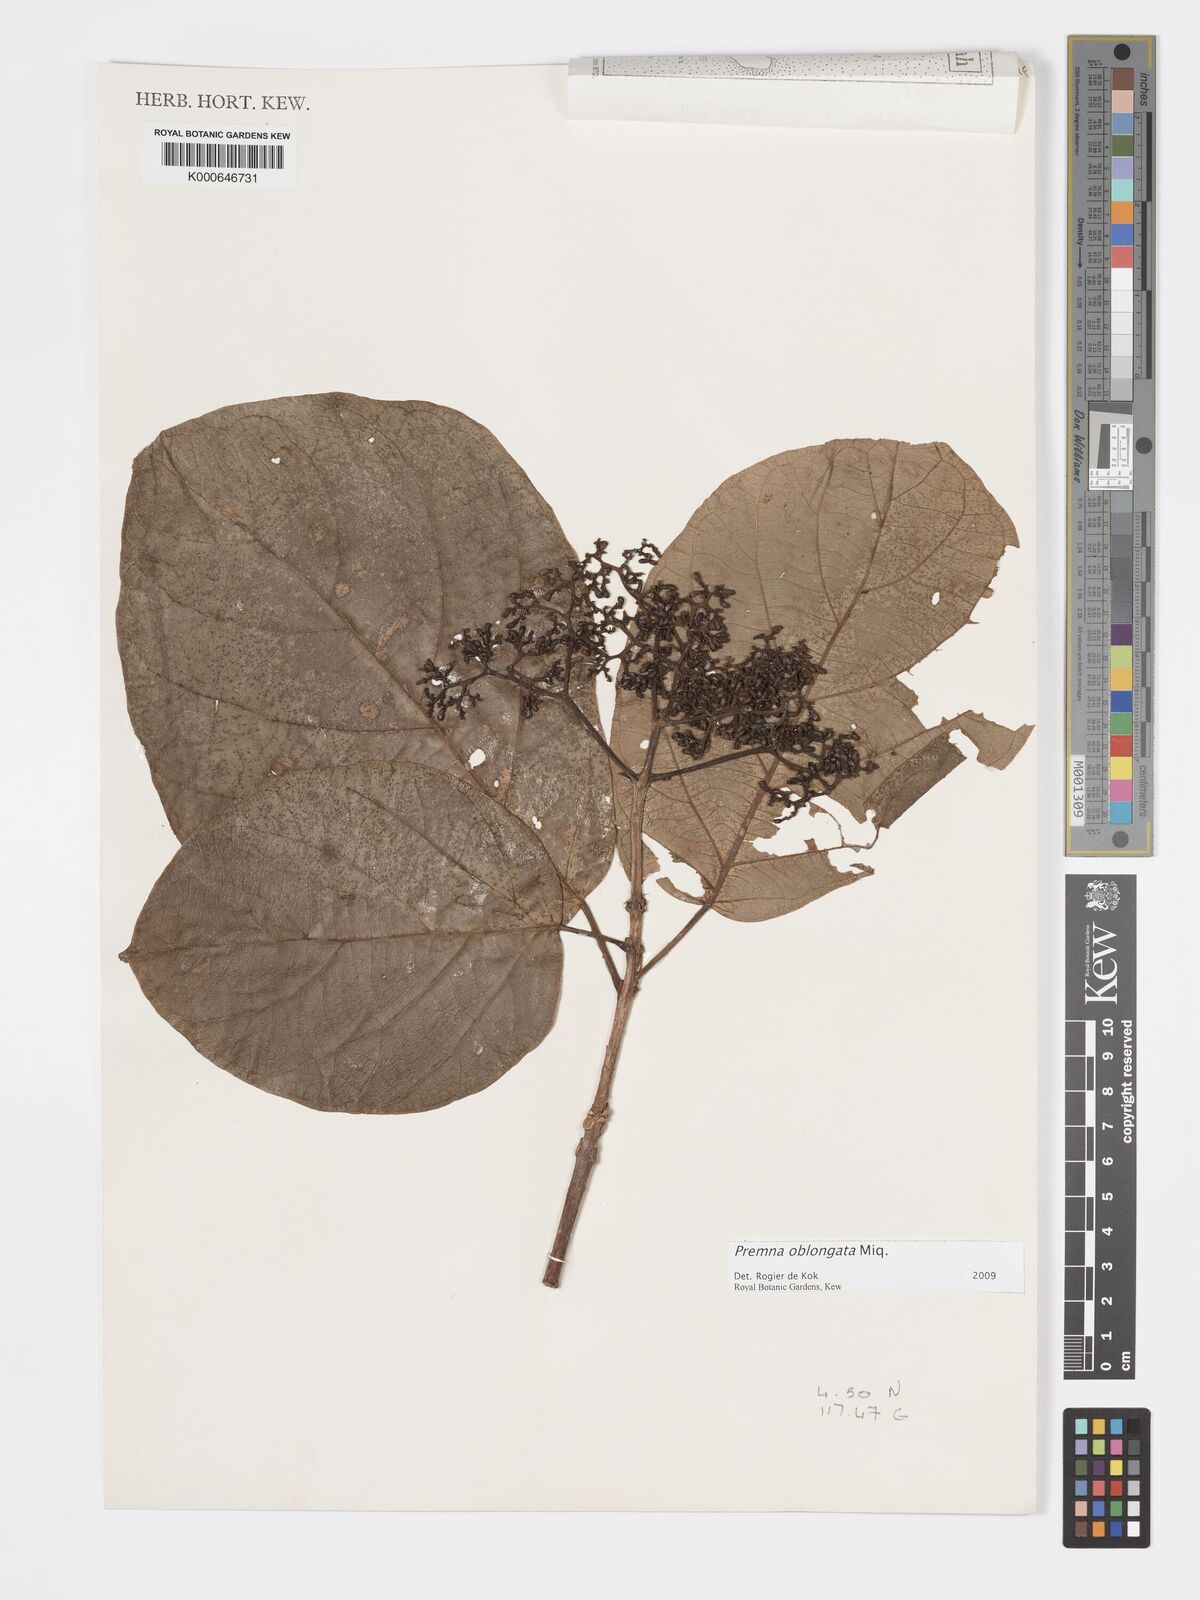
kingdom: Plantae
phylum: Tracheophyta
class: Magnoliopsida
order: Lamiales
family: Lamiaceae
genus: Premna
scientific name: Premna oblongata
